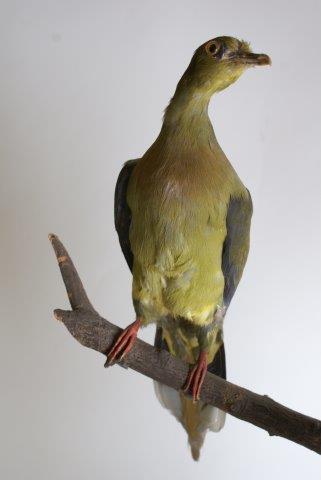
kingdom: Animalia
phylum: Chordata
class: Aves
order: Columbiformes
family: Columbidae
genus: Treron
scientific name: Treron oxyurus
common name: Sumatran green pigeon
